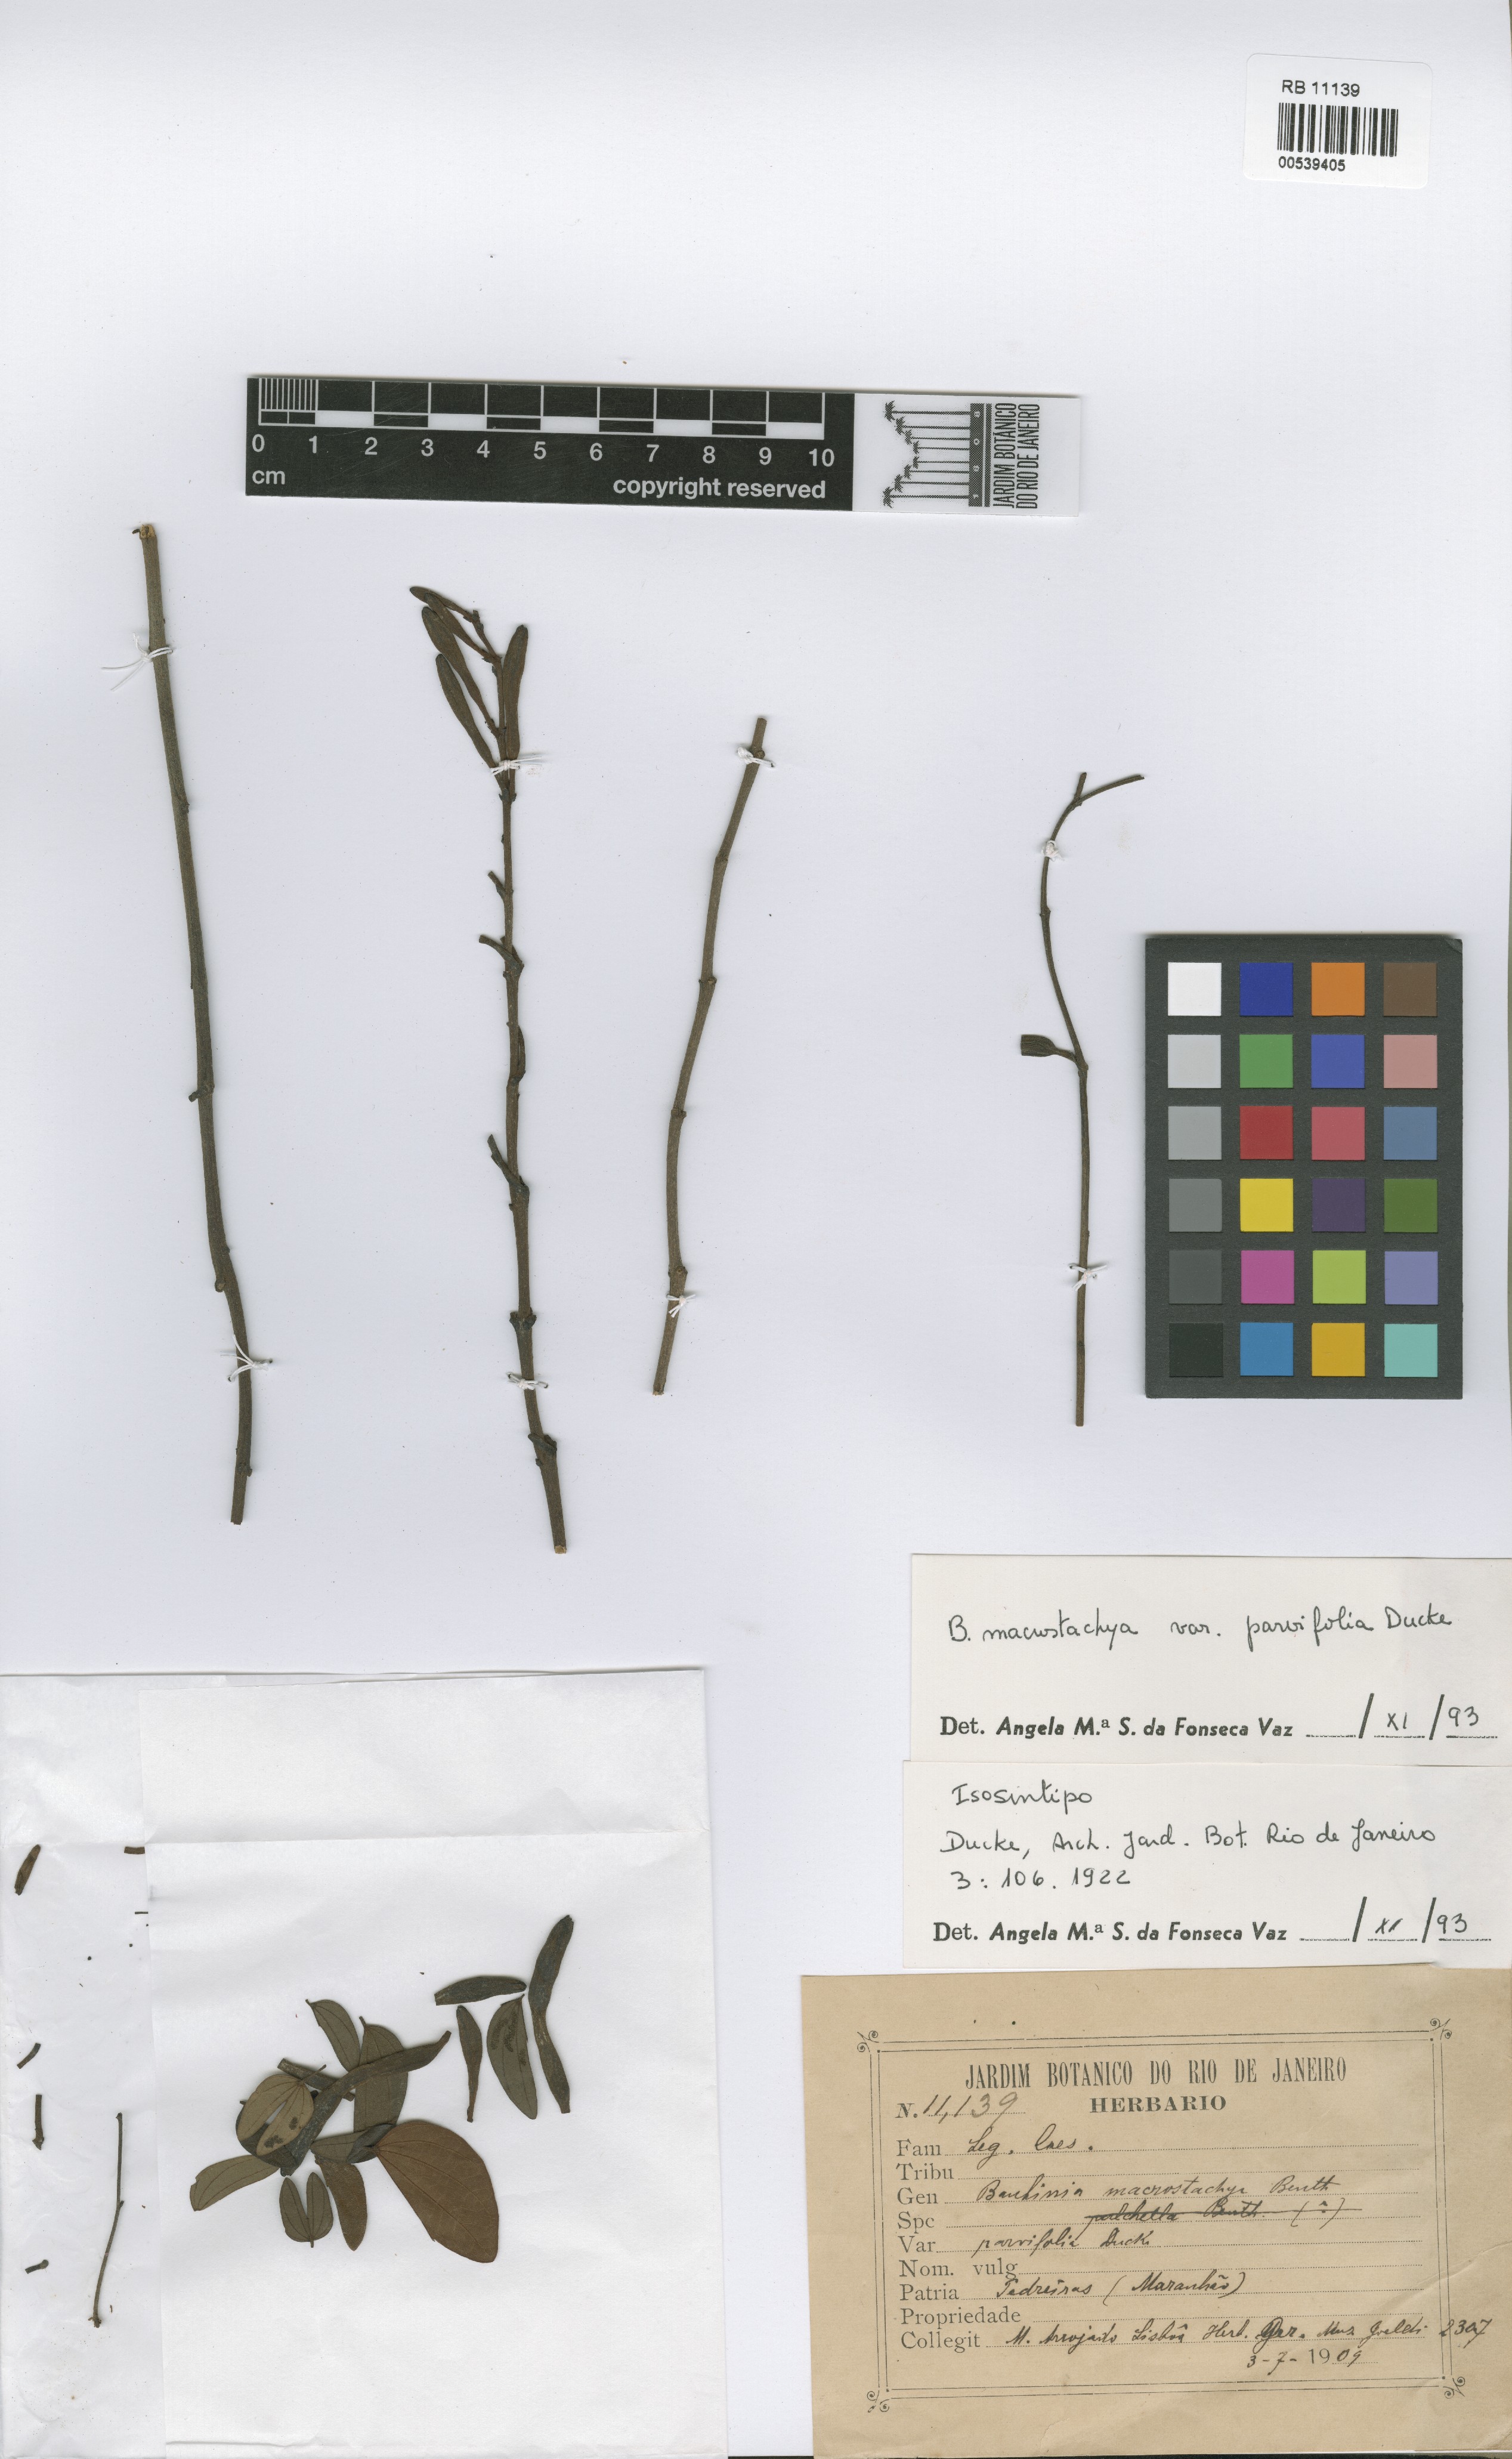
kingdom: Plantae
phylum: Tracheophyta
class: Magnoliopsida
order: Fabales
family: Fabaceae
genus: Bauhinia
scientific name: Bauhinia ungulata
